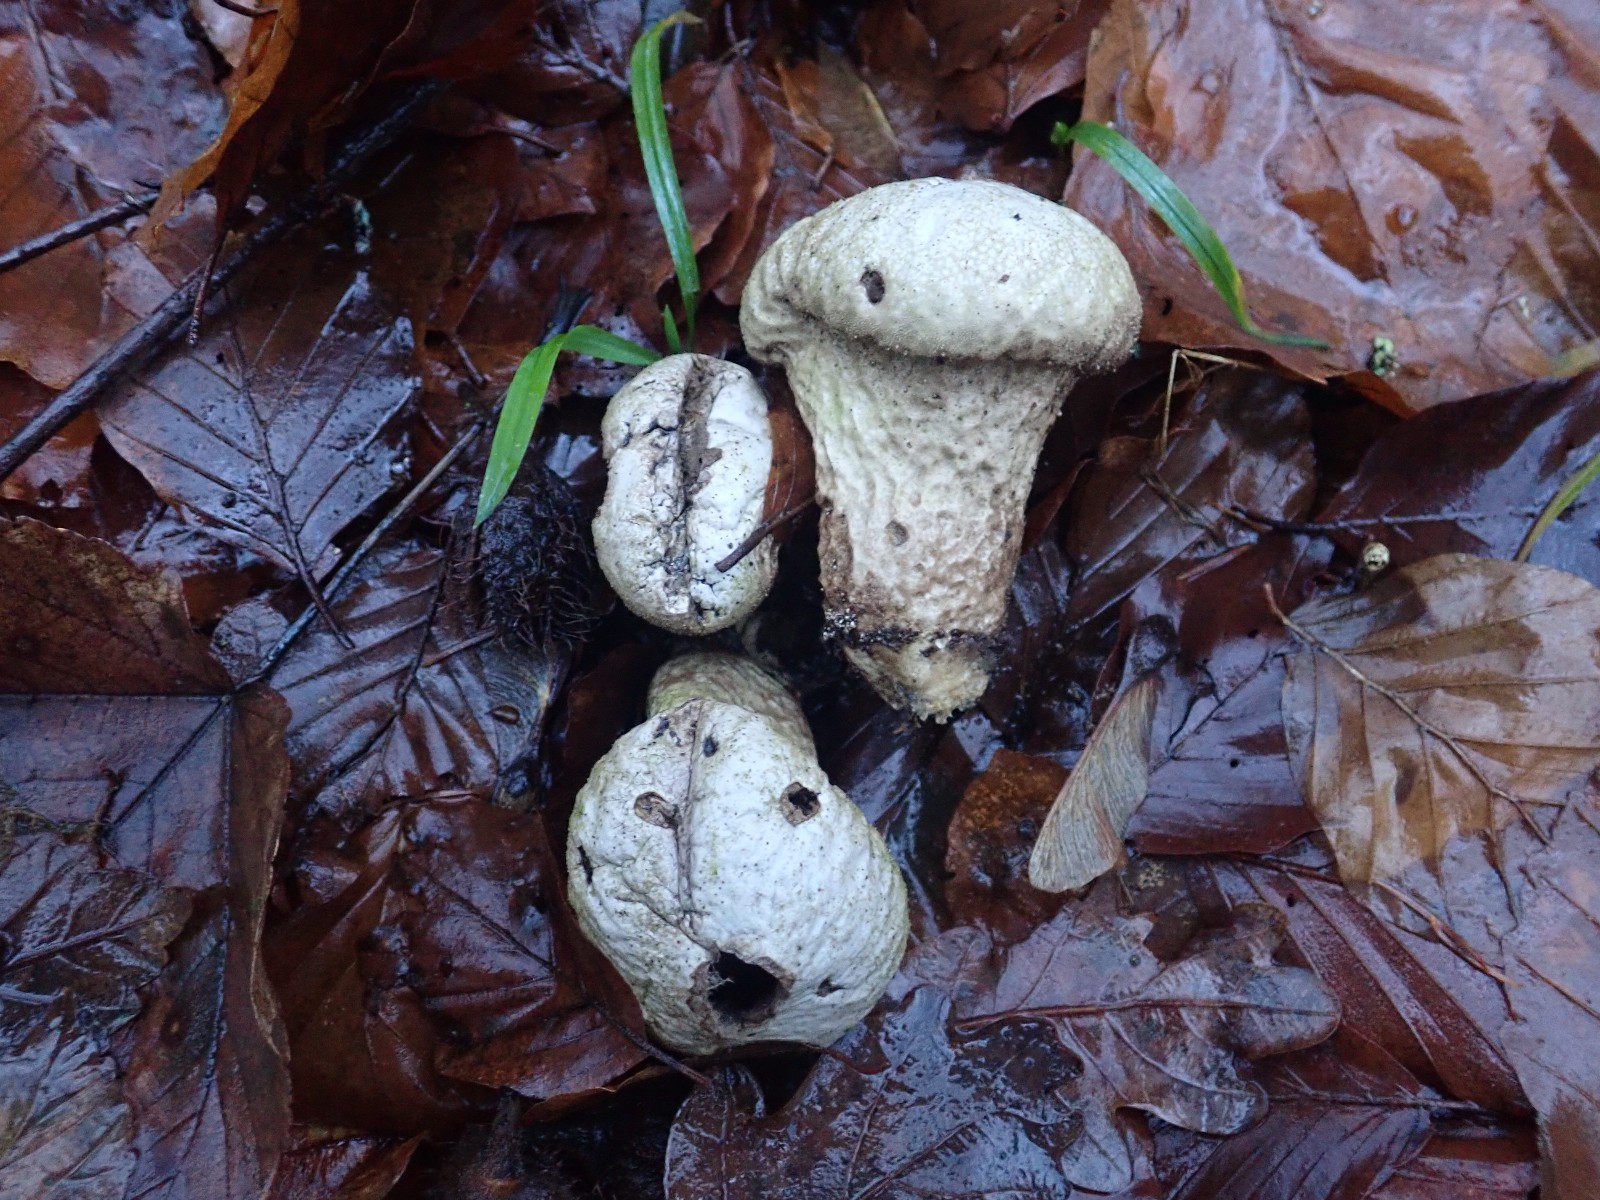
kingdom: Fungi
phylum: Basidiomycota
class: Agaricomycetes
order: Agaricales
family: Lycoperdaceae
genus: Lycoperdon
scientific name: Lycoperdon perlatum
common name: krystal-støvbold
